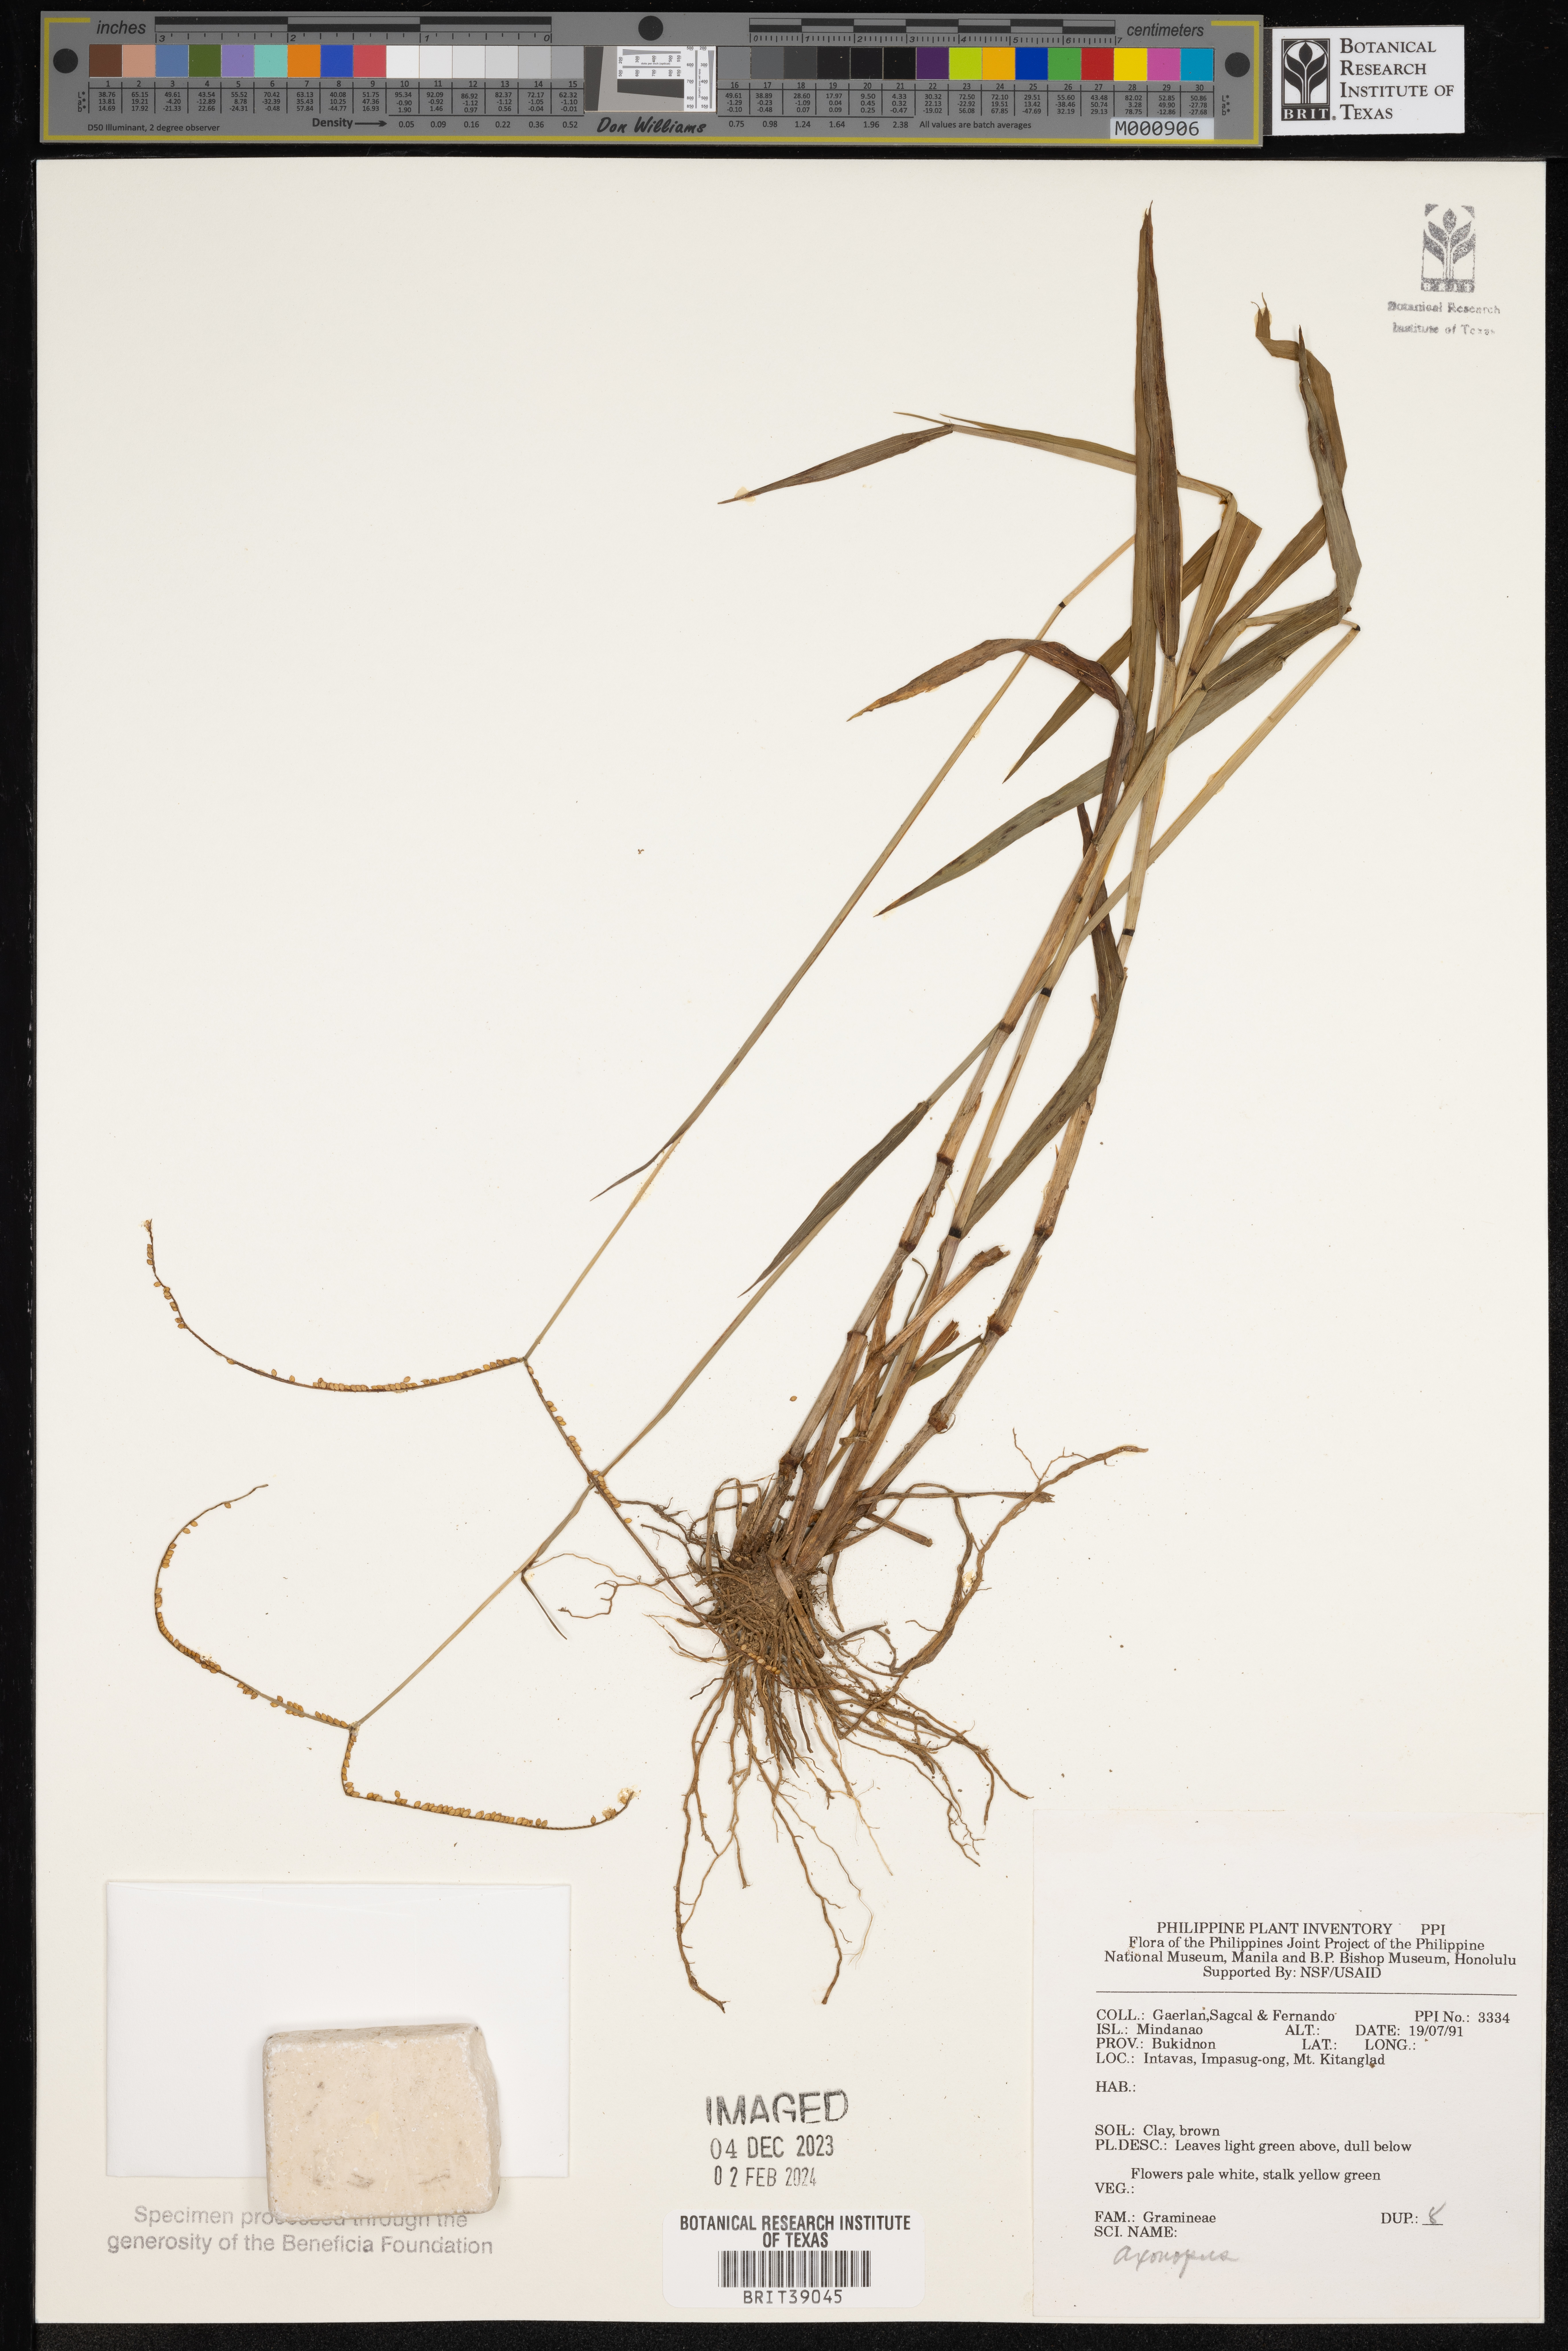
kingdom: Plantae
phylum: Tracheophyta
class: Liliopsida
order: Poales
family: Poaceae
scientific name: Poaceae
